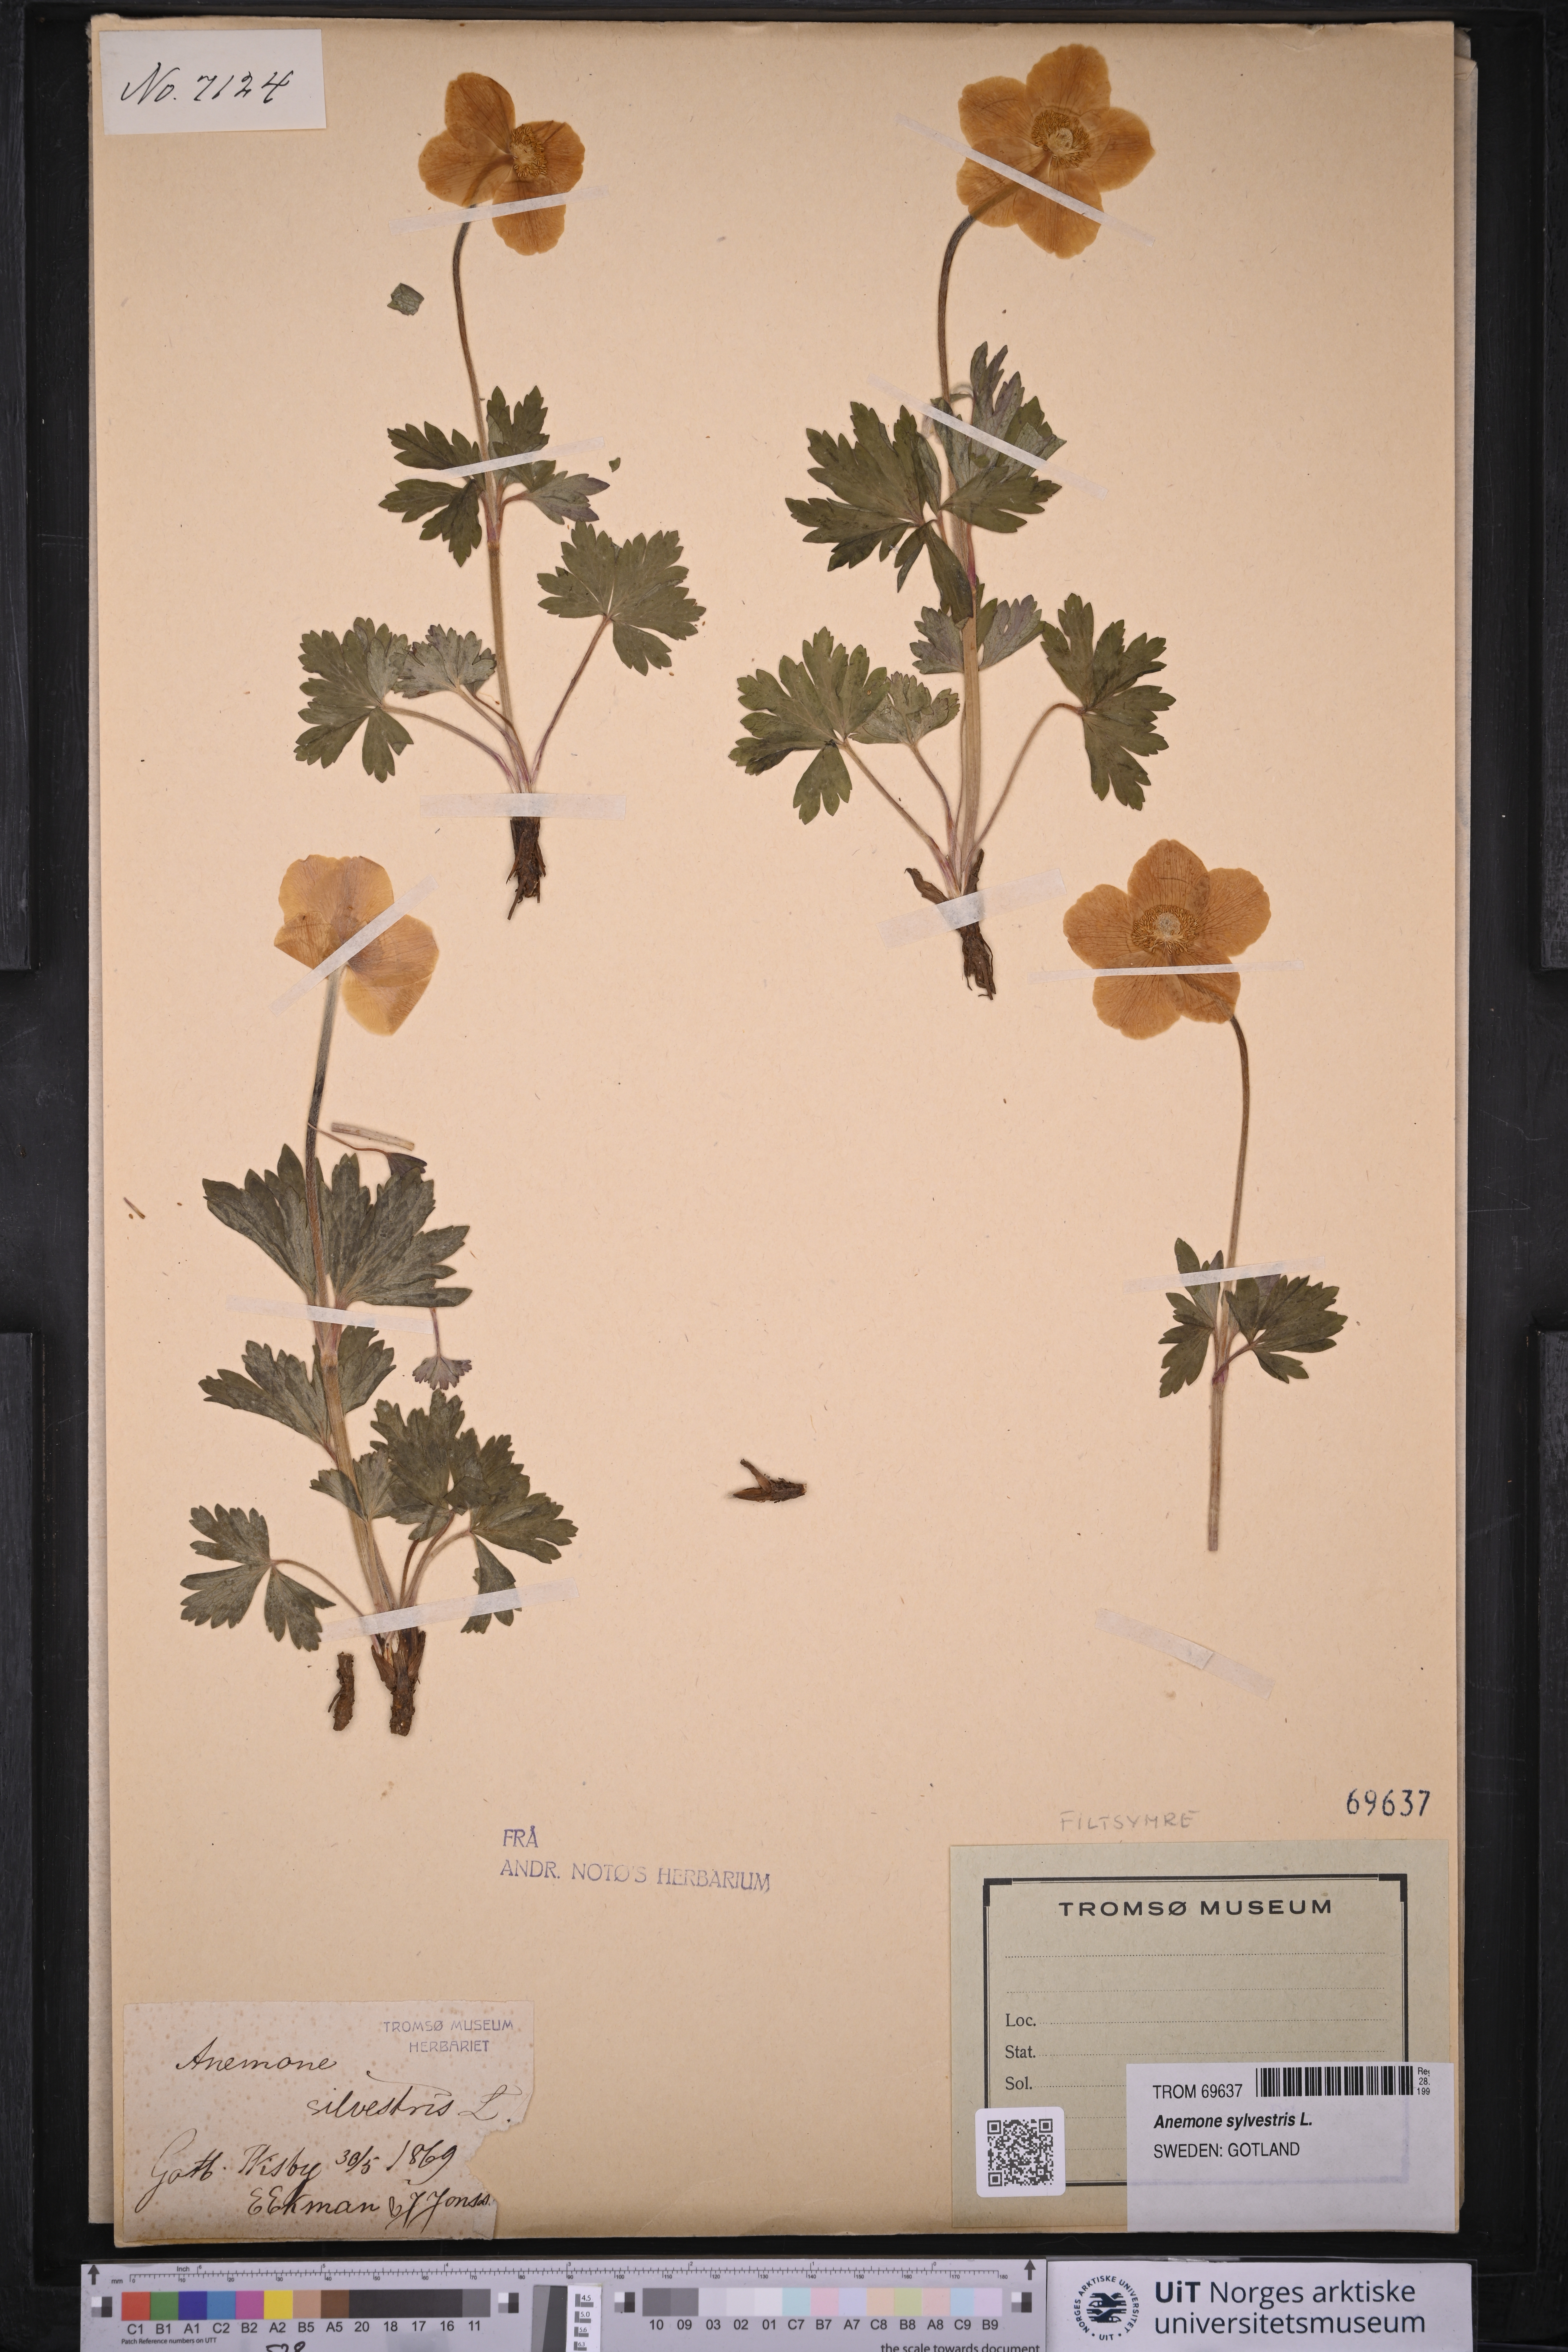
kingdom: Plantae
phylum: Tracheophyta
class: Magnoliopsida
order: Ranunculales
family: Ranunculaceae
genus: Anemone
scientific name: Anemone sylvestris
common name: Snowdrop anemone
